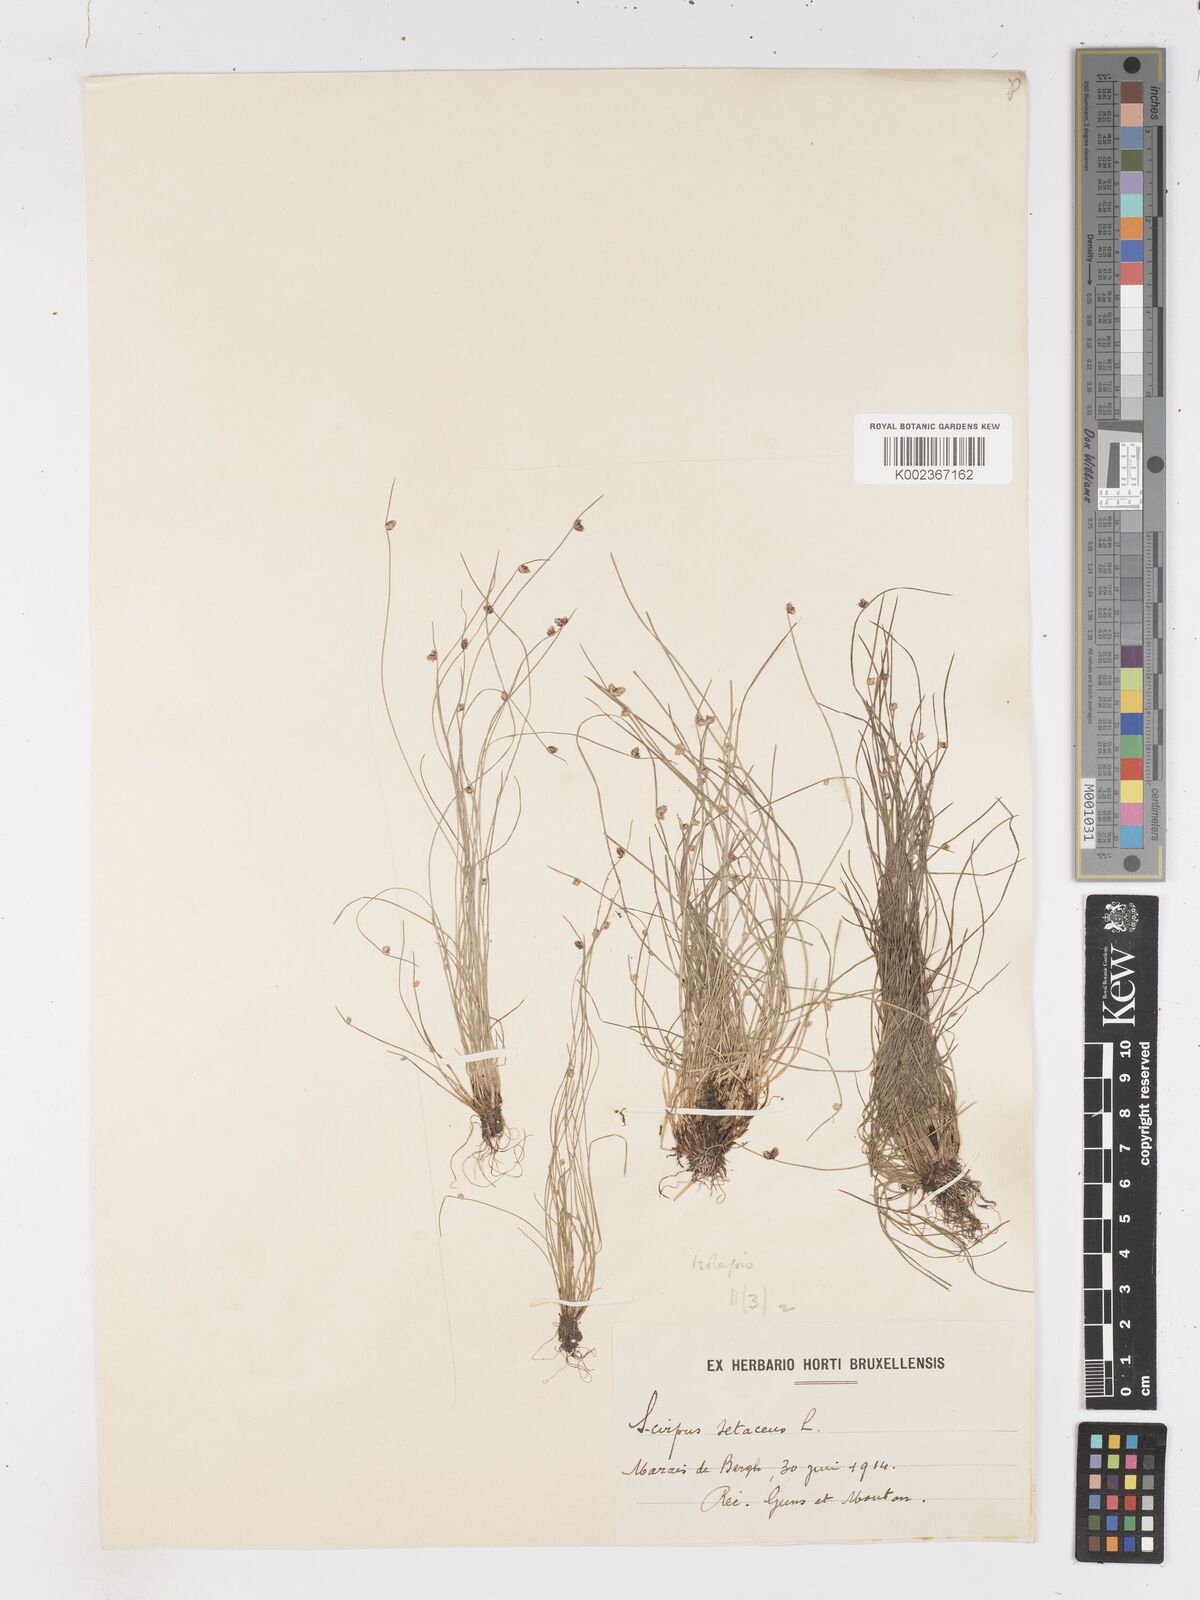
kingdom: Plantae
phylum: Tracheophyta
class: Liliopsida
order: Poales
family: Cyperaceae
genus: Isolepis
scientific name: Isolepis setacea
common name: Bristle club-rush
